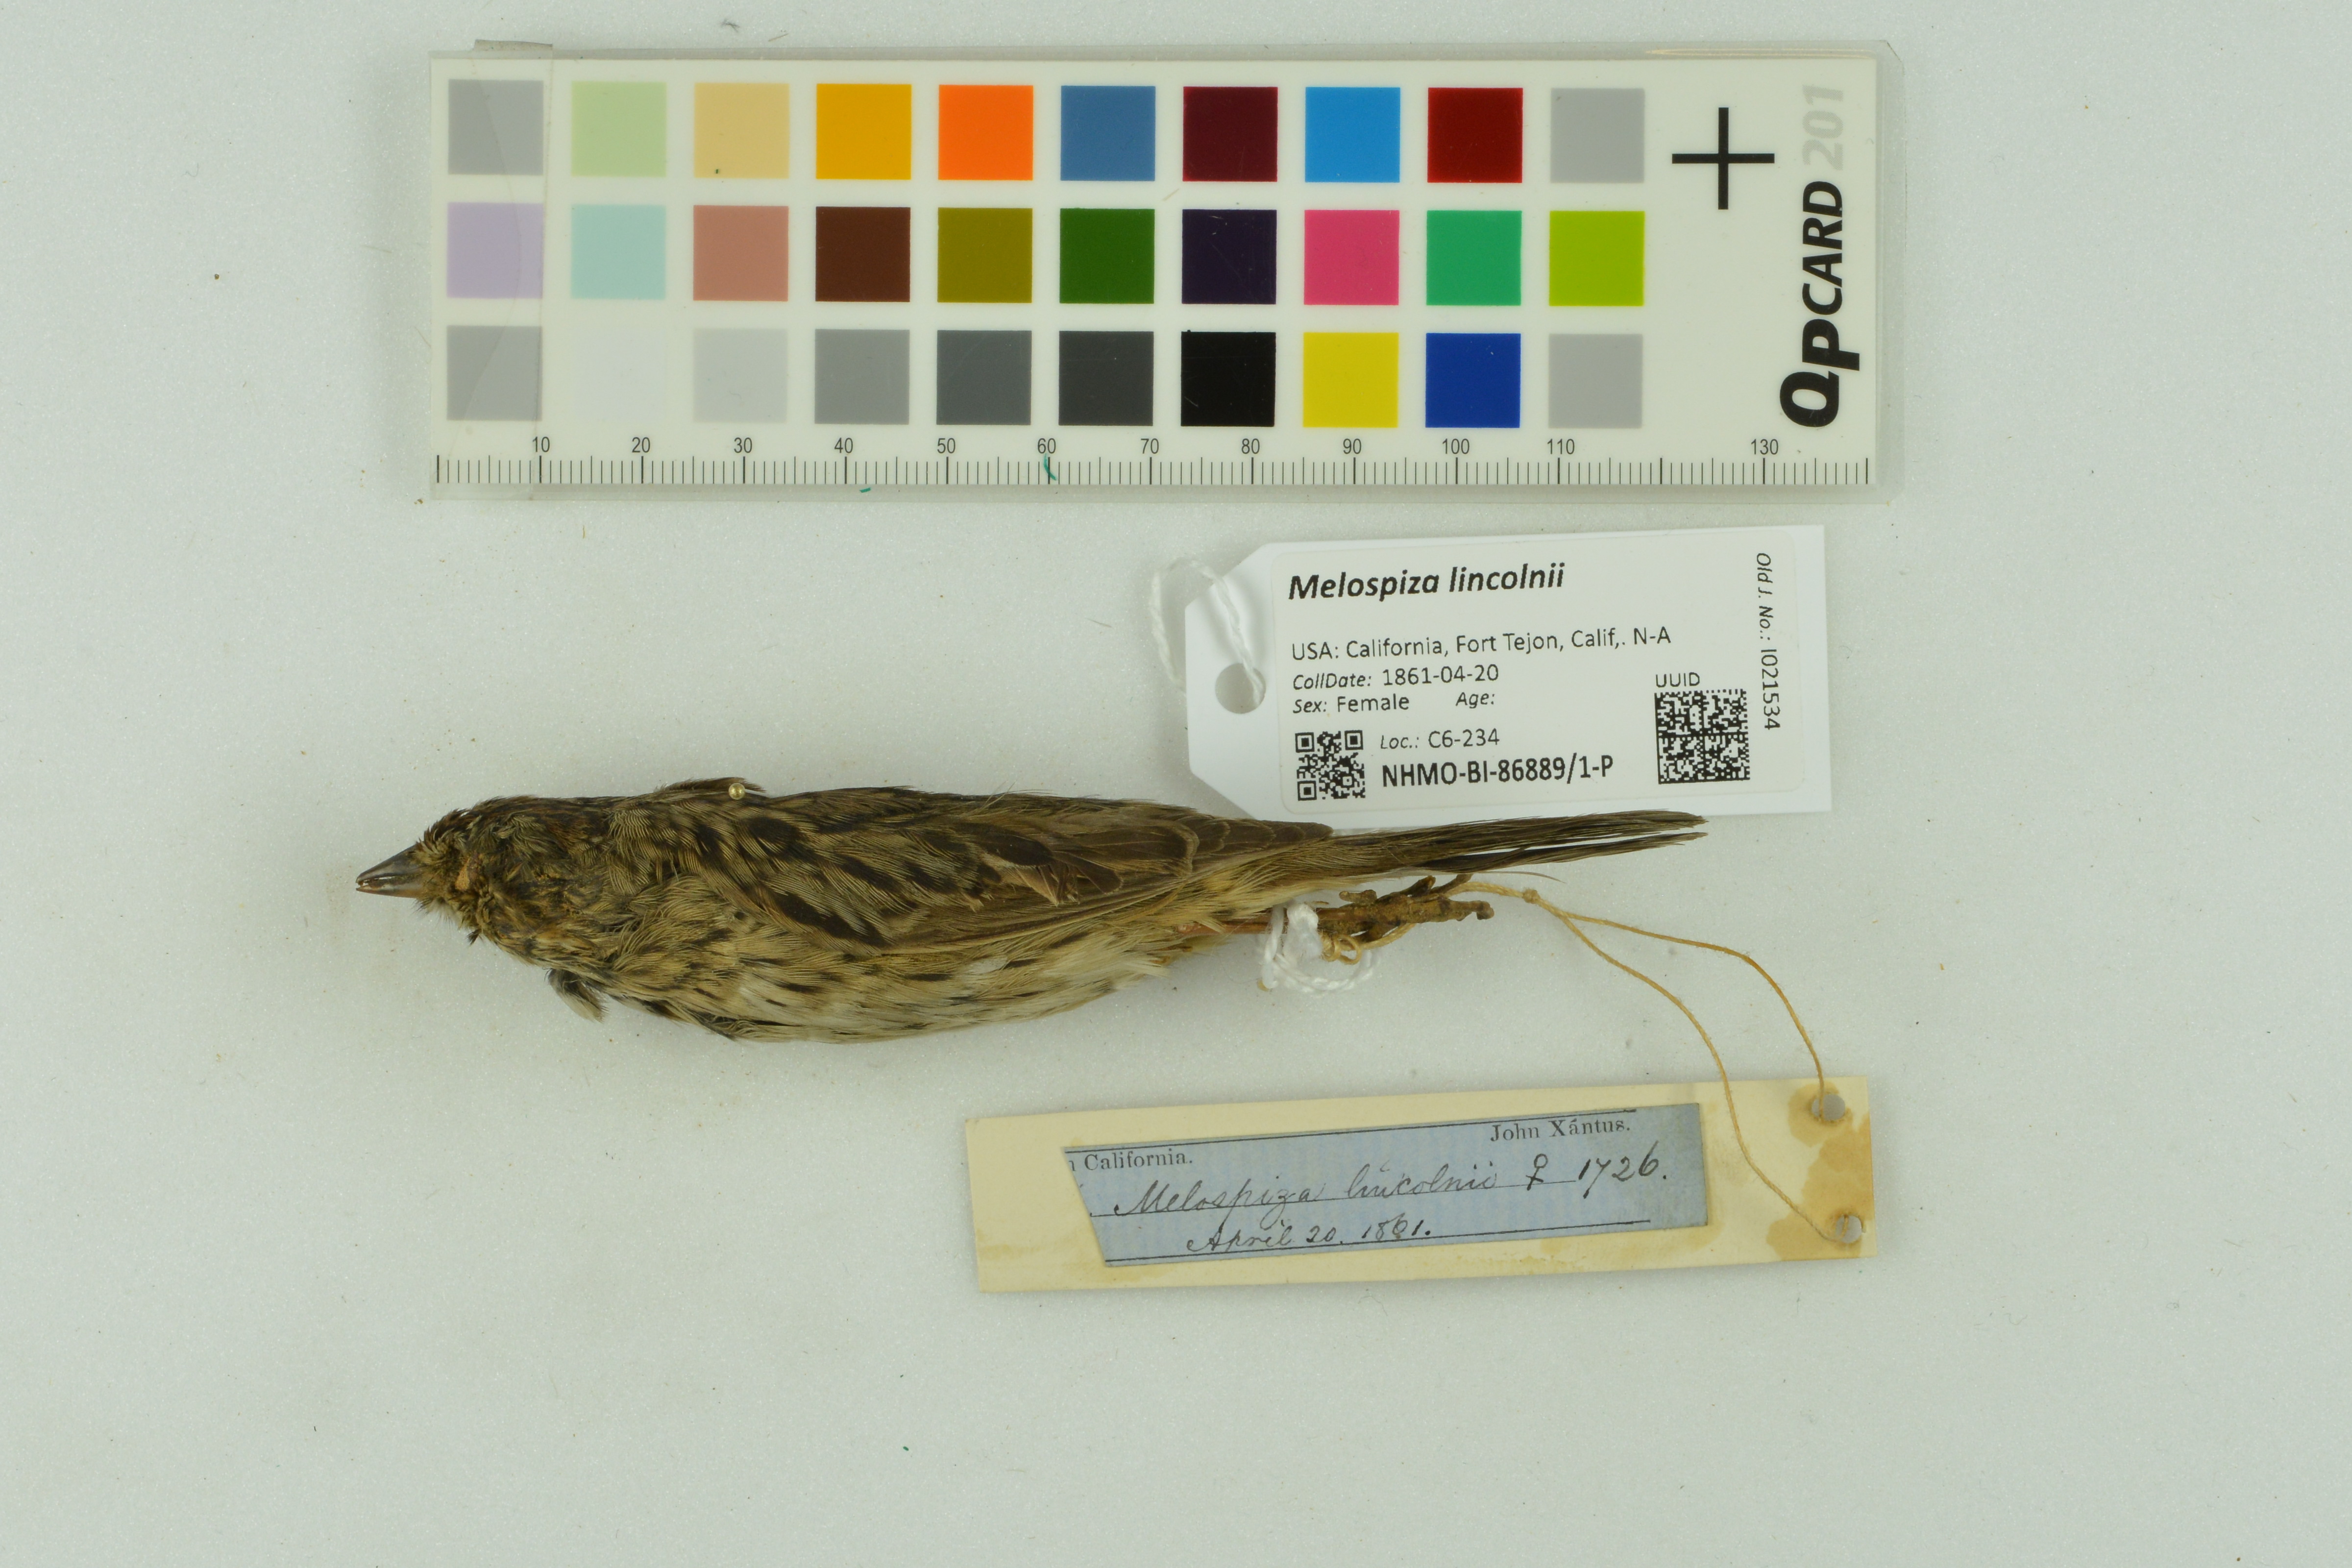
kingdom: Animalia
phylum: Chordata
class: Aves
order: Passeriformes
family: Passerellidae
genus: Melospiza
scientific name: Melospiza lincolnii
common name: Lincoln's sparrow
